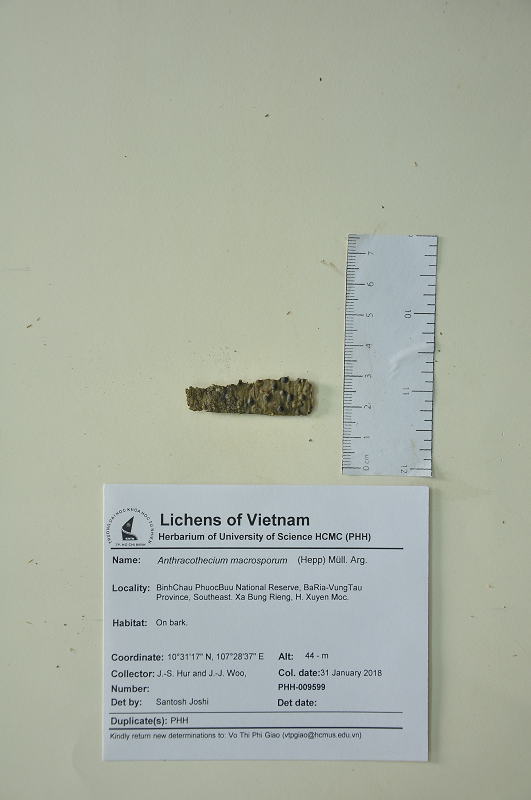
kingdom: Fungi
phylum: Ascomycota
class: Eurotiomycetes
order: Pyrenulales
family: Pyrenulaceae
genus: Anthracothecium
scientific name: Anthracothecium macrosporum
